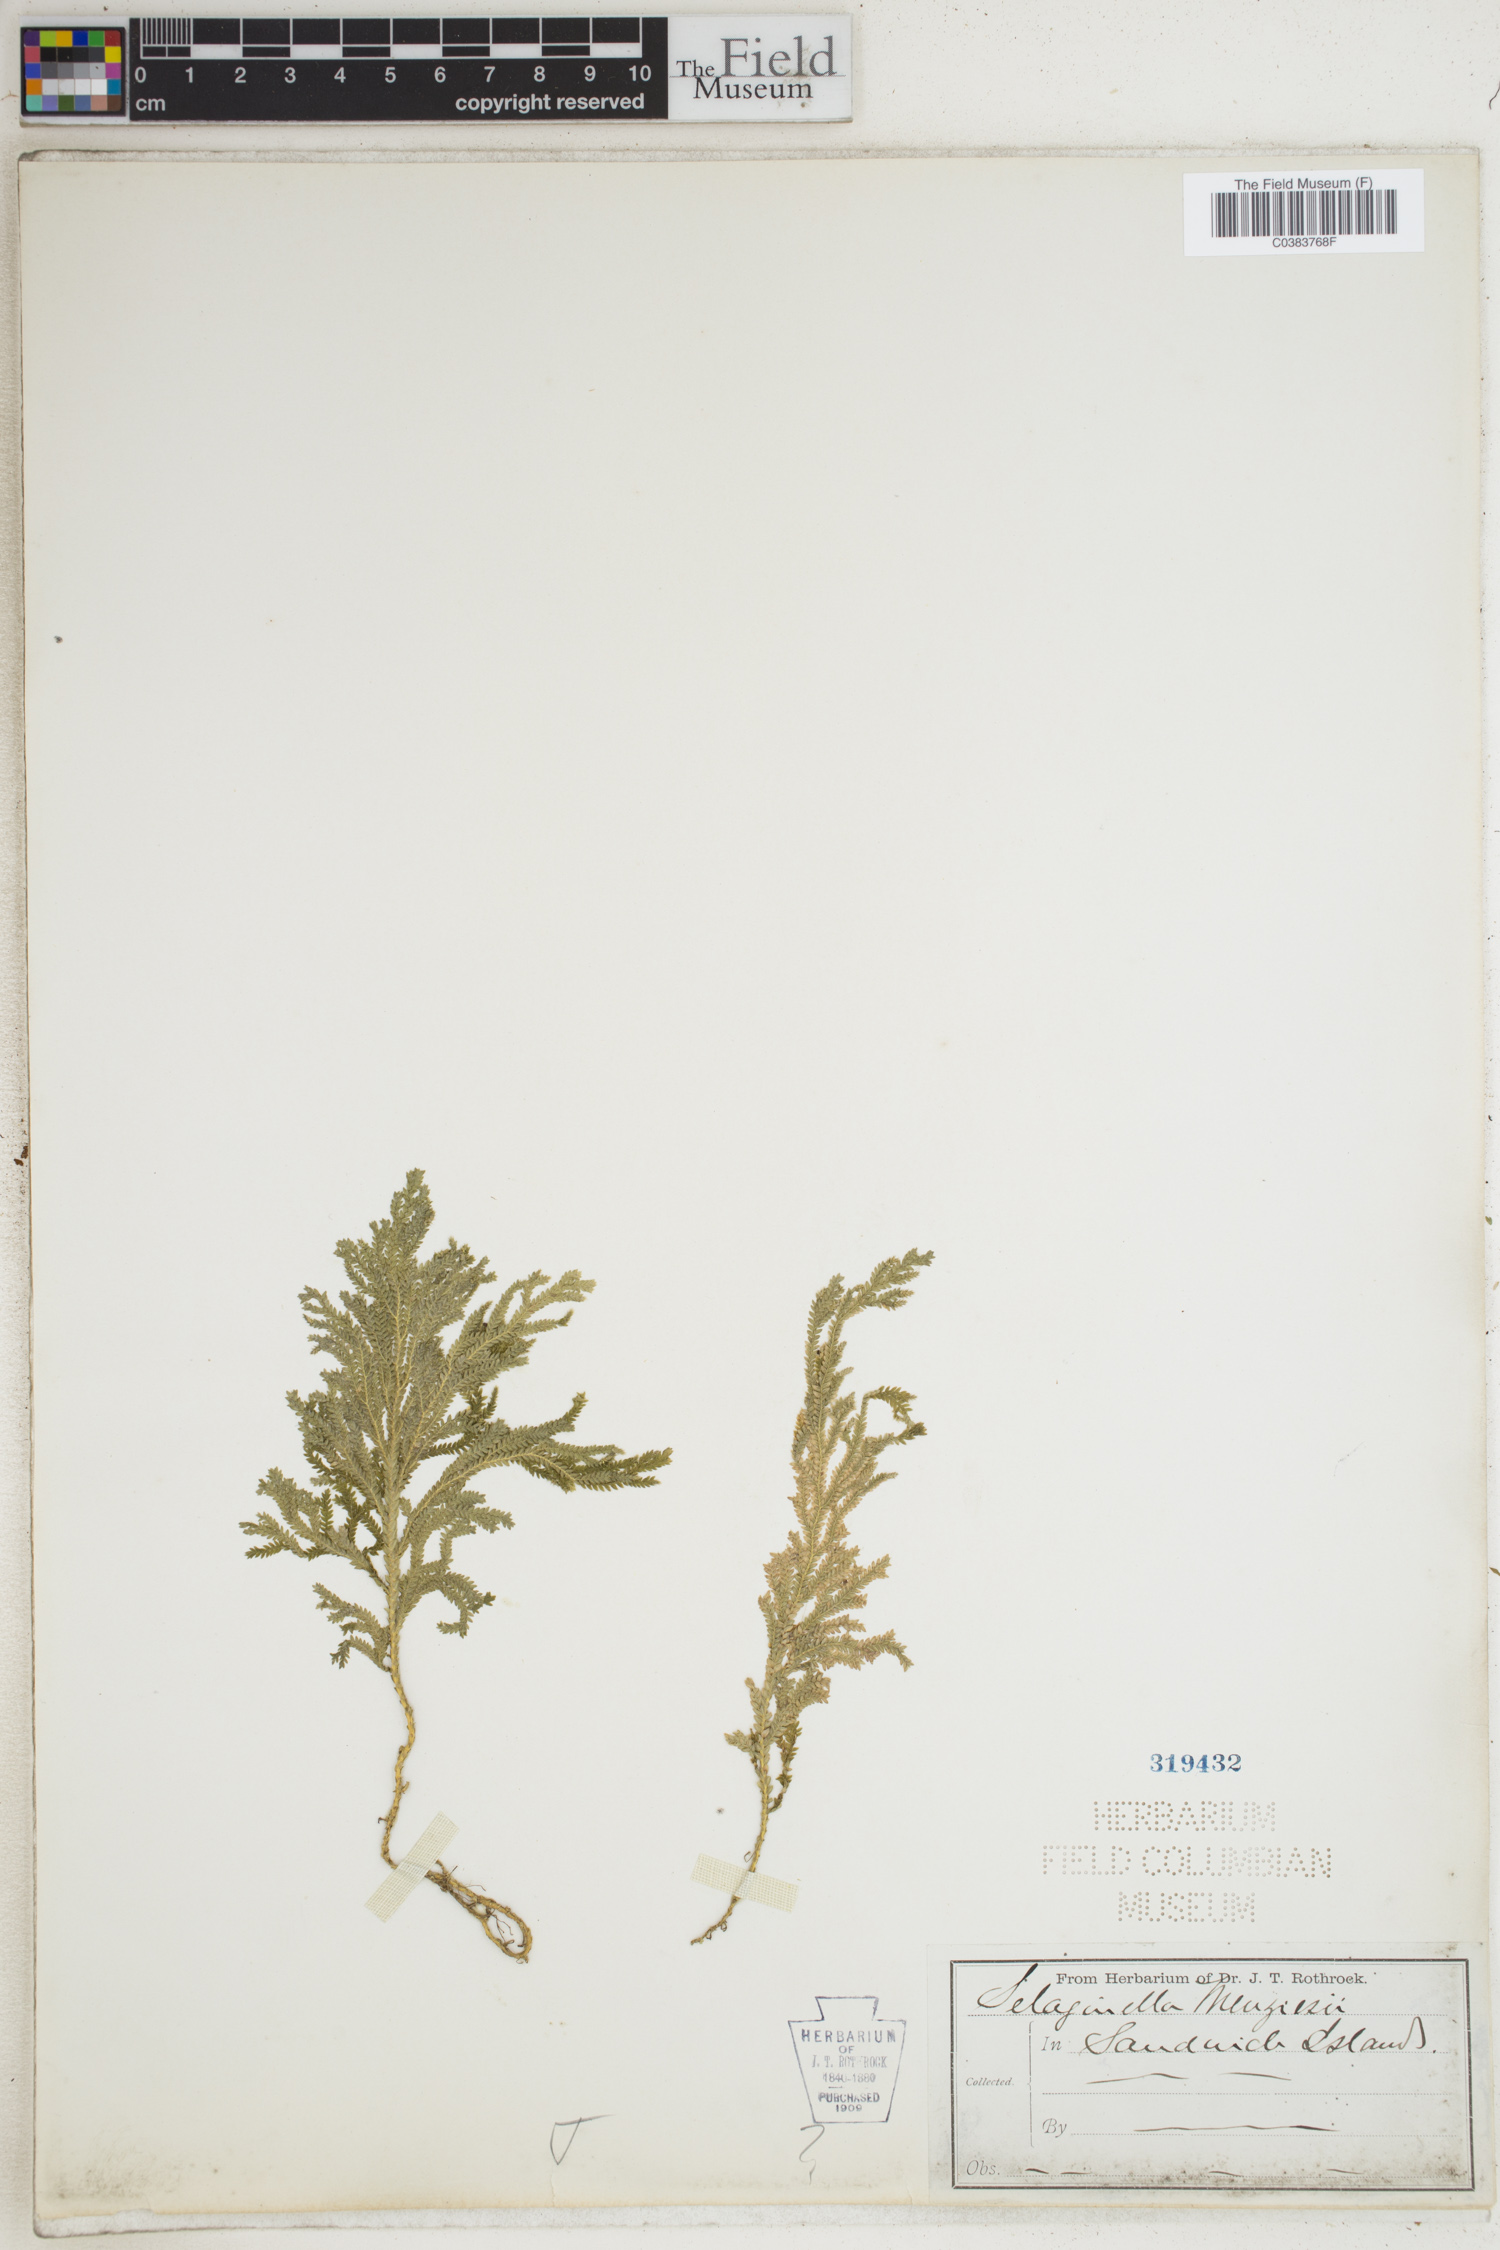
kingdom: Plantae
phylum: Tracheophyta
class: Lycopodiopsida
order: Selaginellales
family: Selaginellaceae
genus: Selaginella
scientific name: Selaginella menziesii
